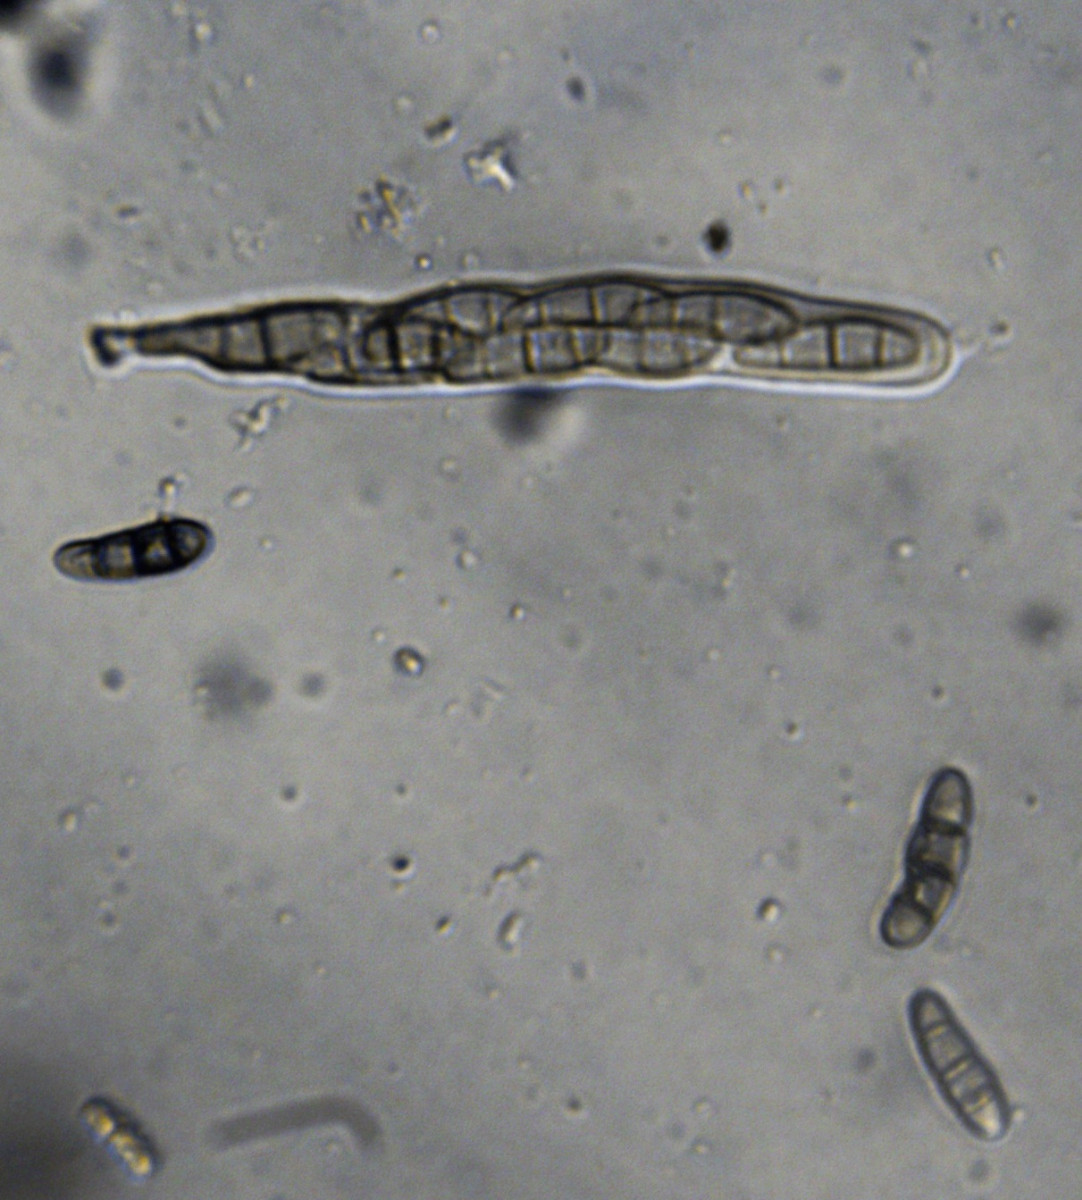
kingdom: Fungi
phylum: Ascomycota
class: Dothideomycetes
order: Hysteriales
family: Hysteriaceae
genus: Hysterium
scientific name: Hysterium acuminatum
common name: almindelig kulmund
